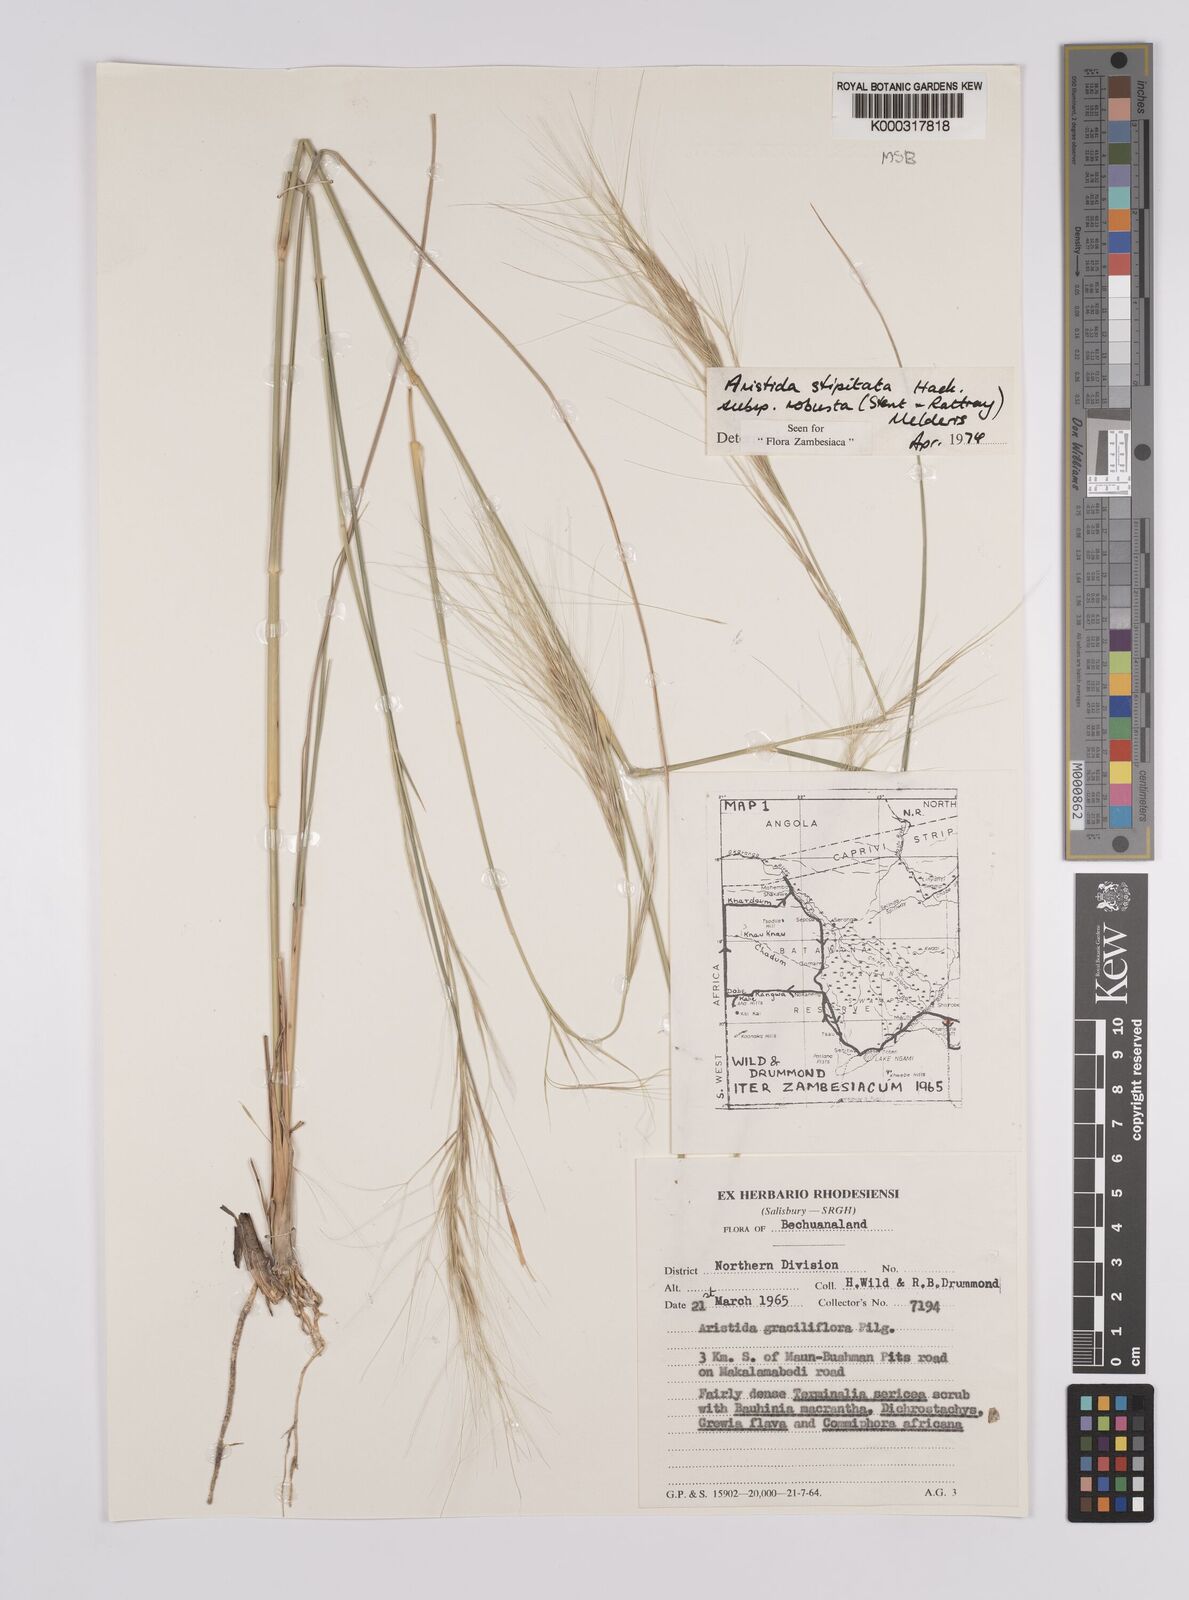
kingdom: Plantae
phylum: Tracheophyta
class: Liliopsida
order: Poales
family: Poaceae
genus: Aristida
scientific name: Aristida stipitata
